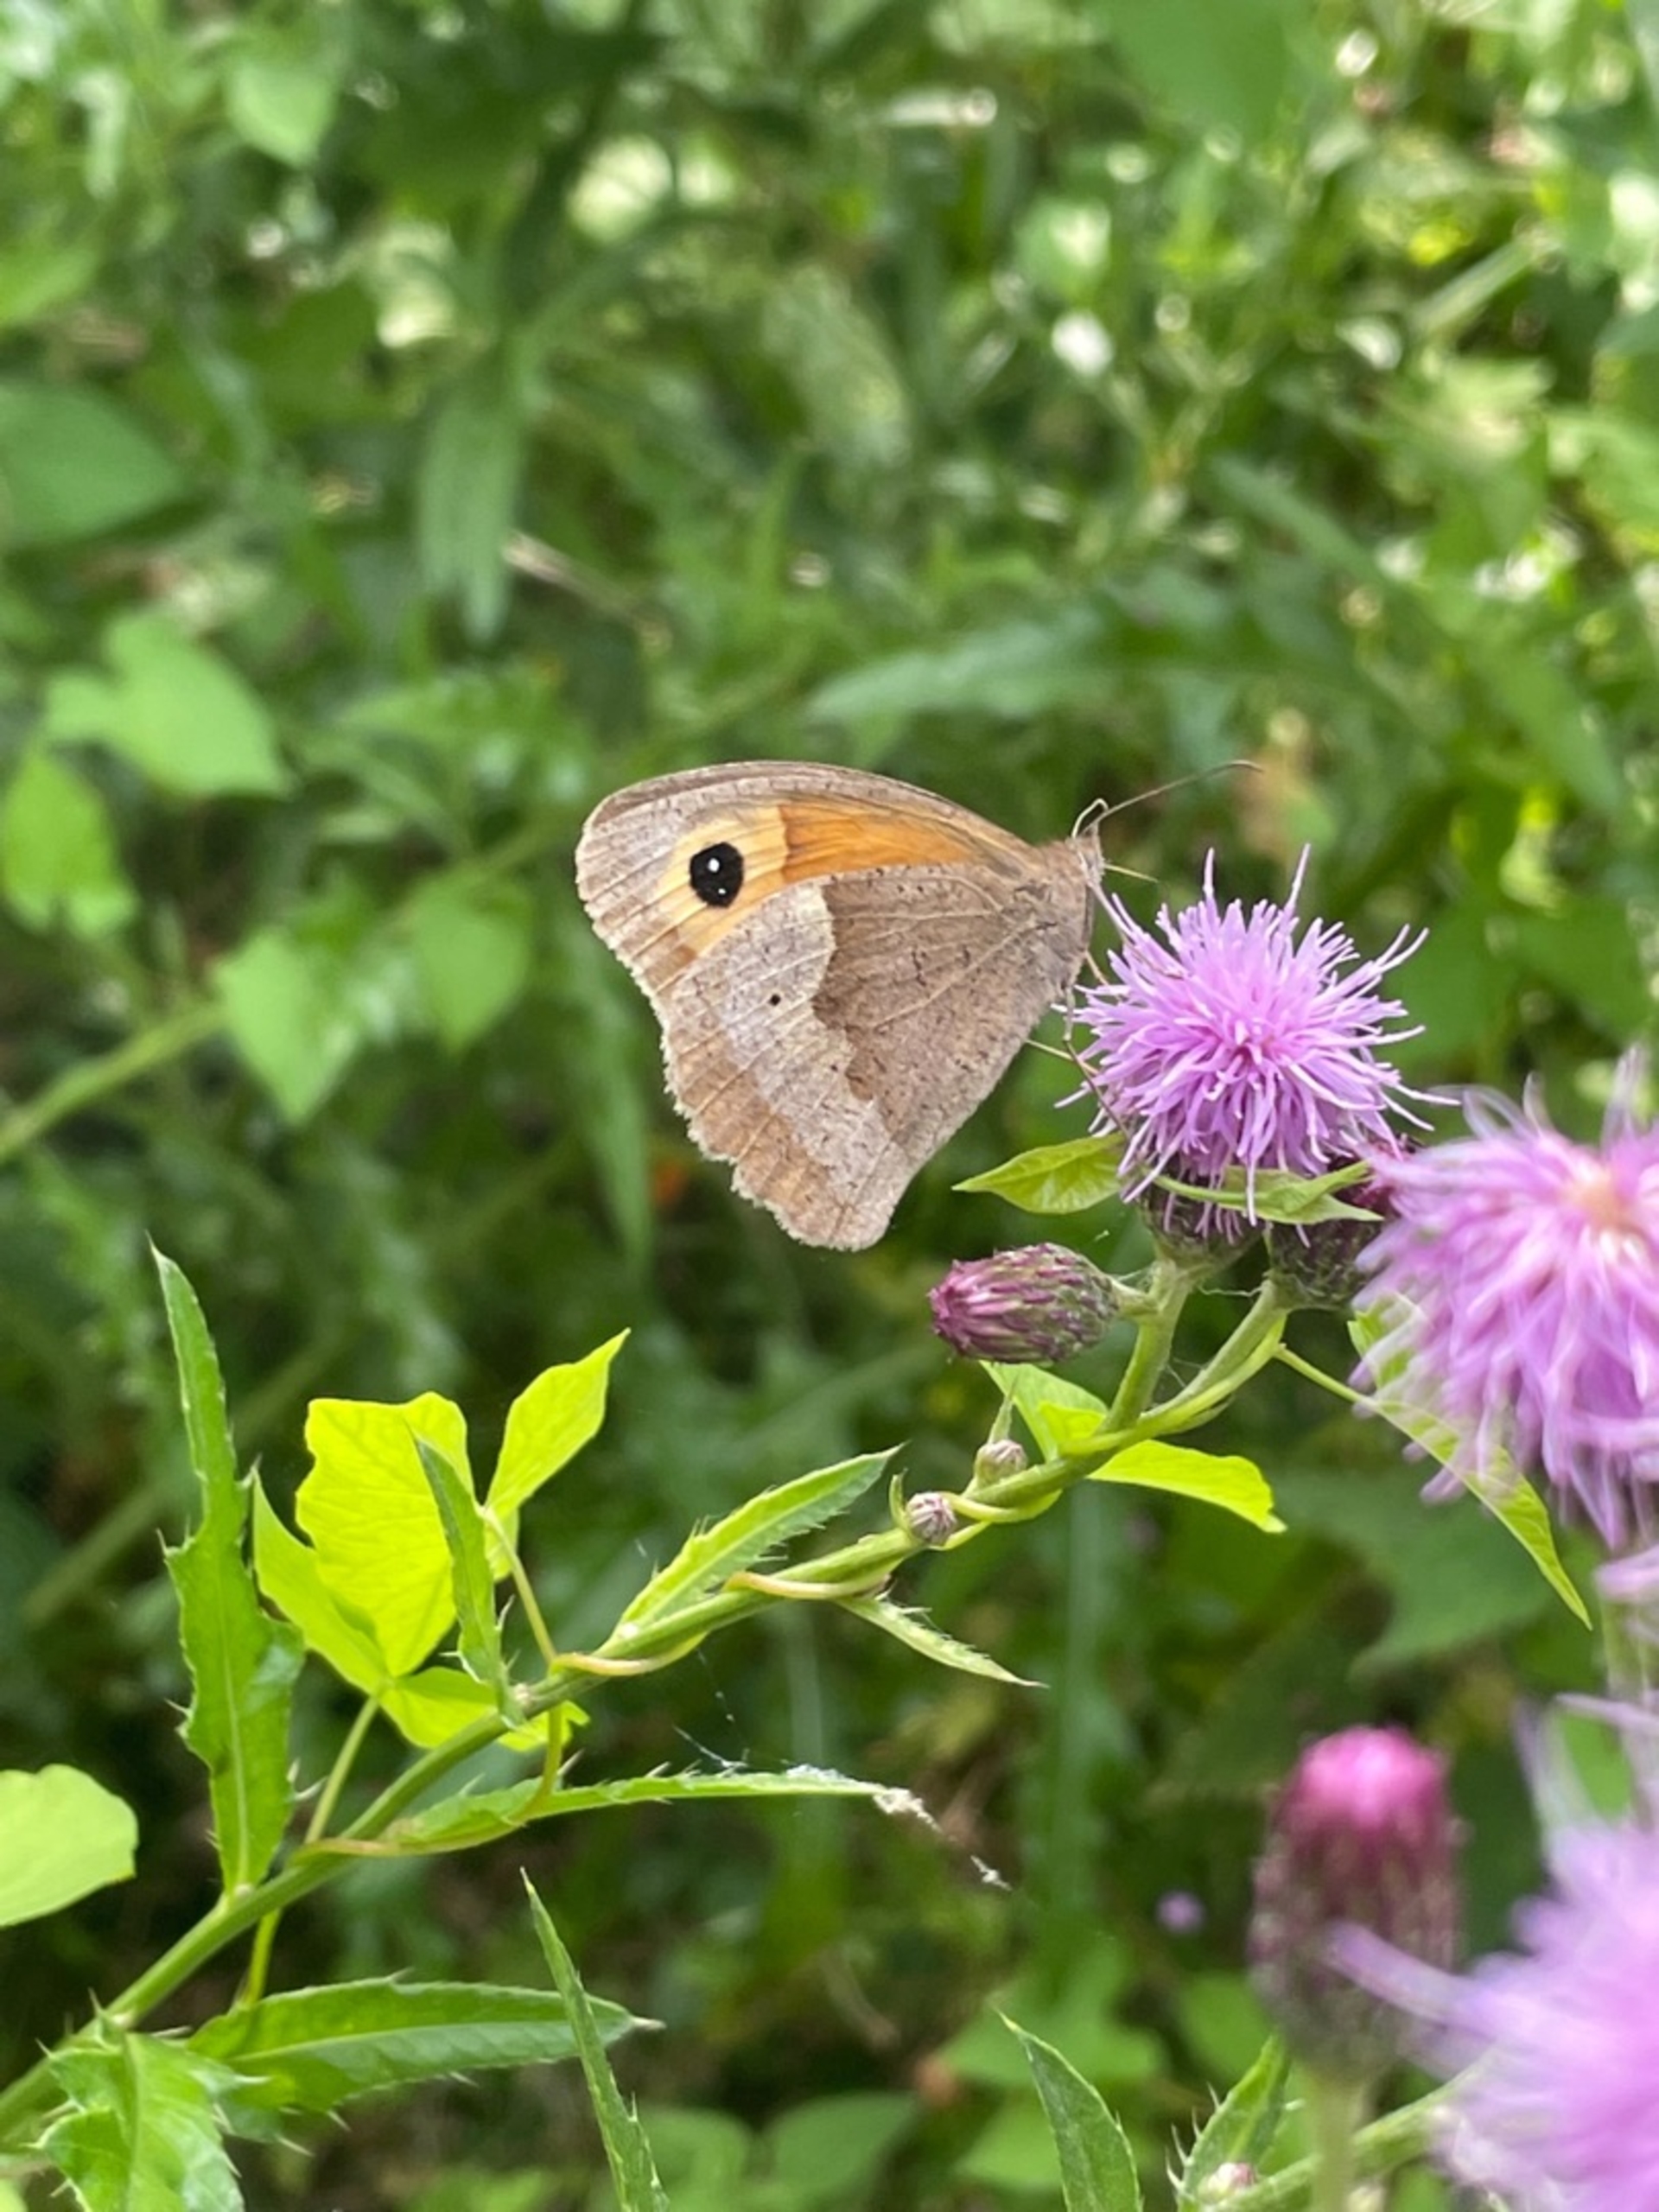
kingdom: Animalia
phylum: Arthropoda
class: Insecta
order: Lepidoptera
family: Nymphalidae
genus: Maniola
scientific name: Maniola jurtina
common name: Græsrandøje
